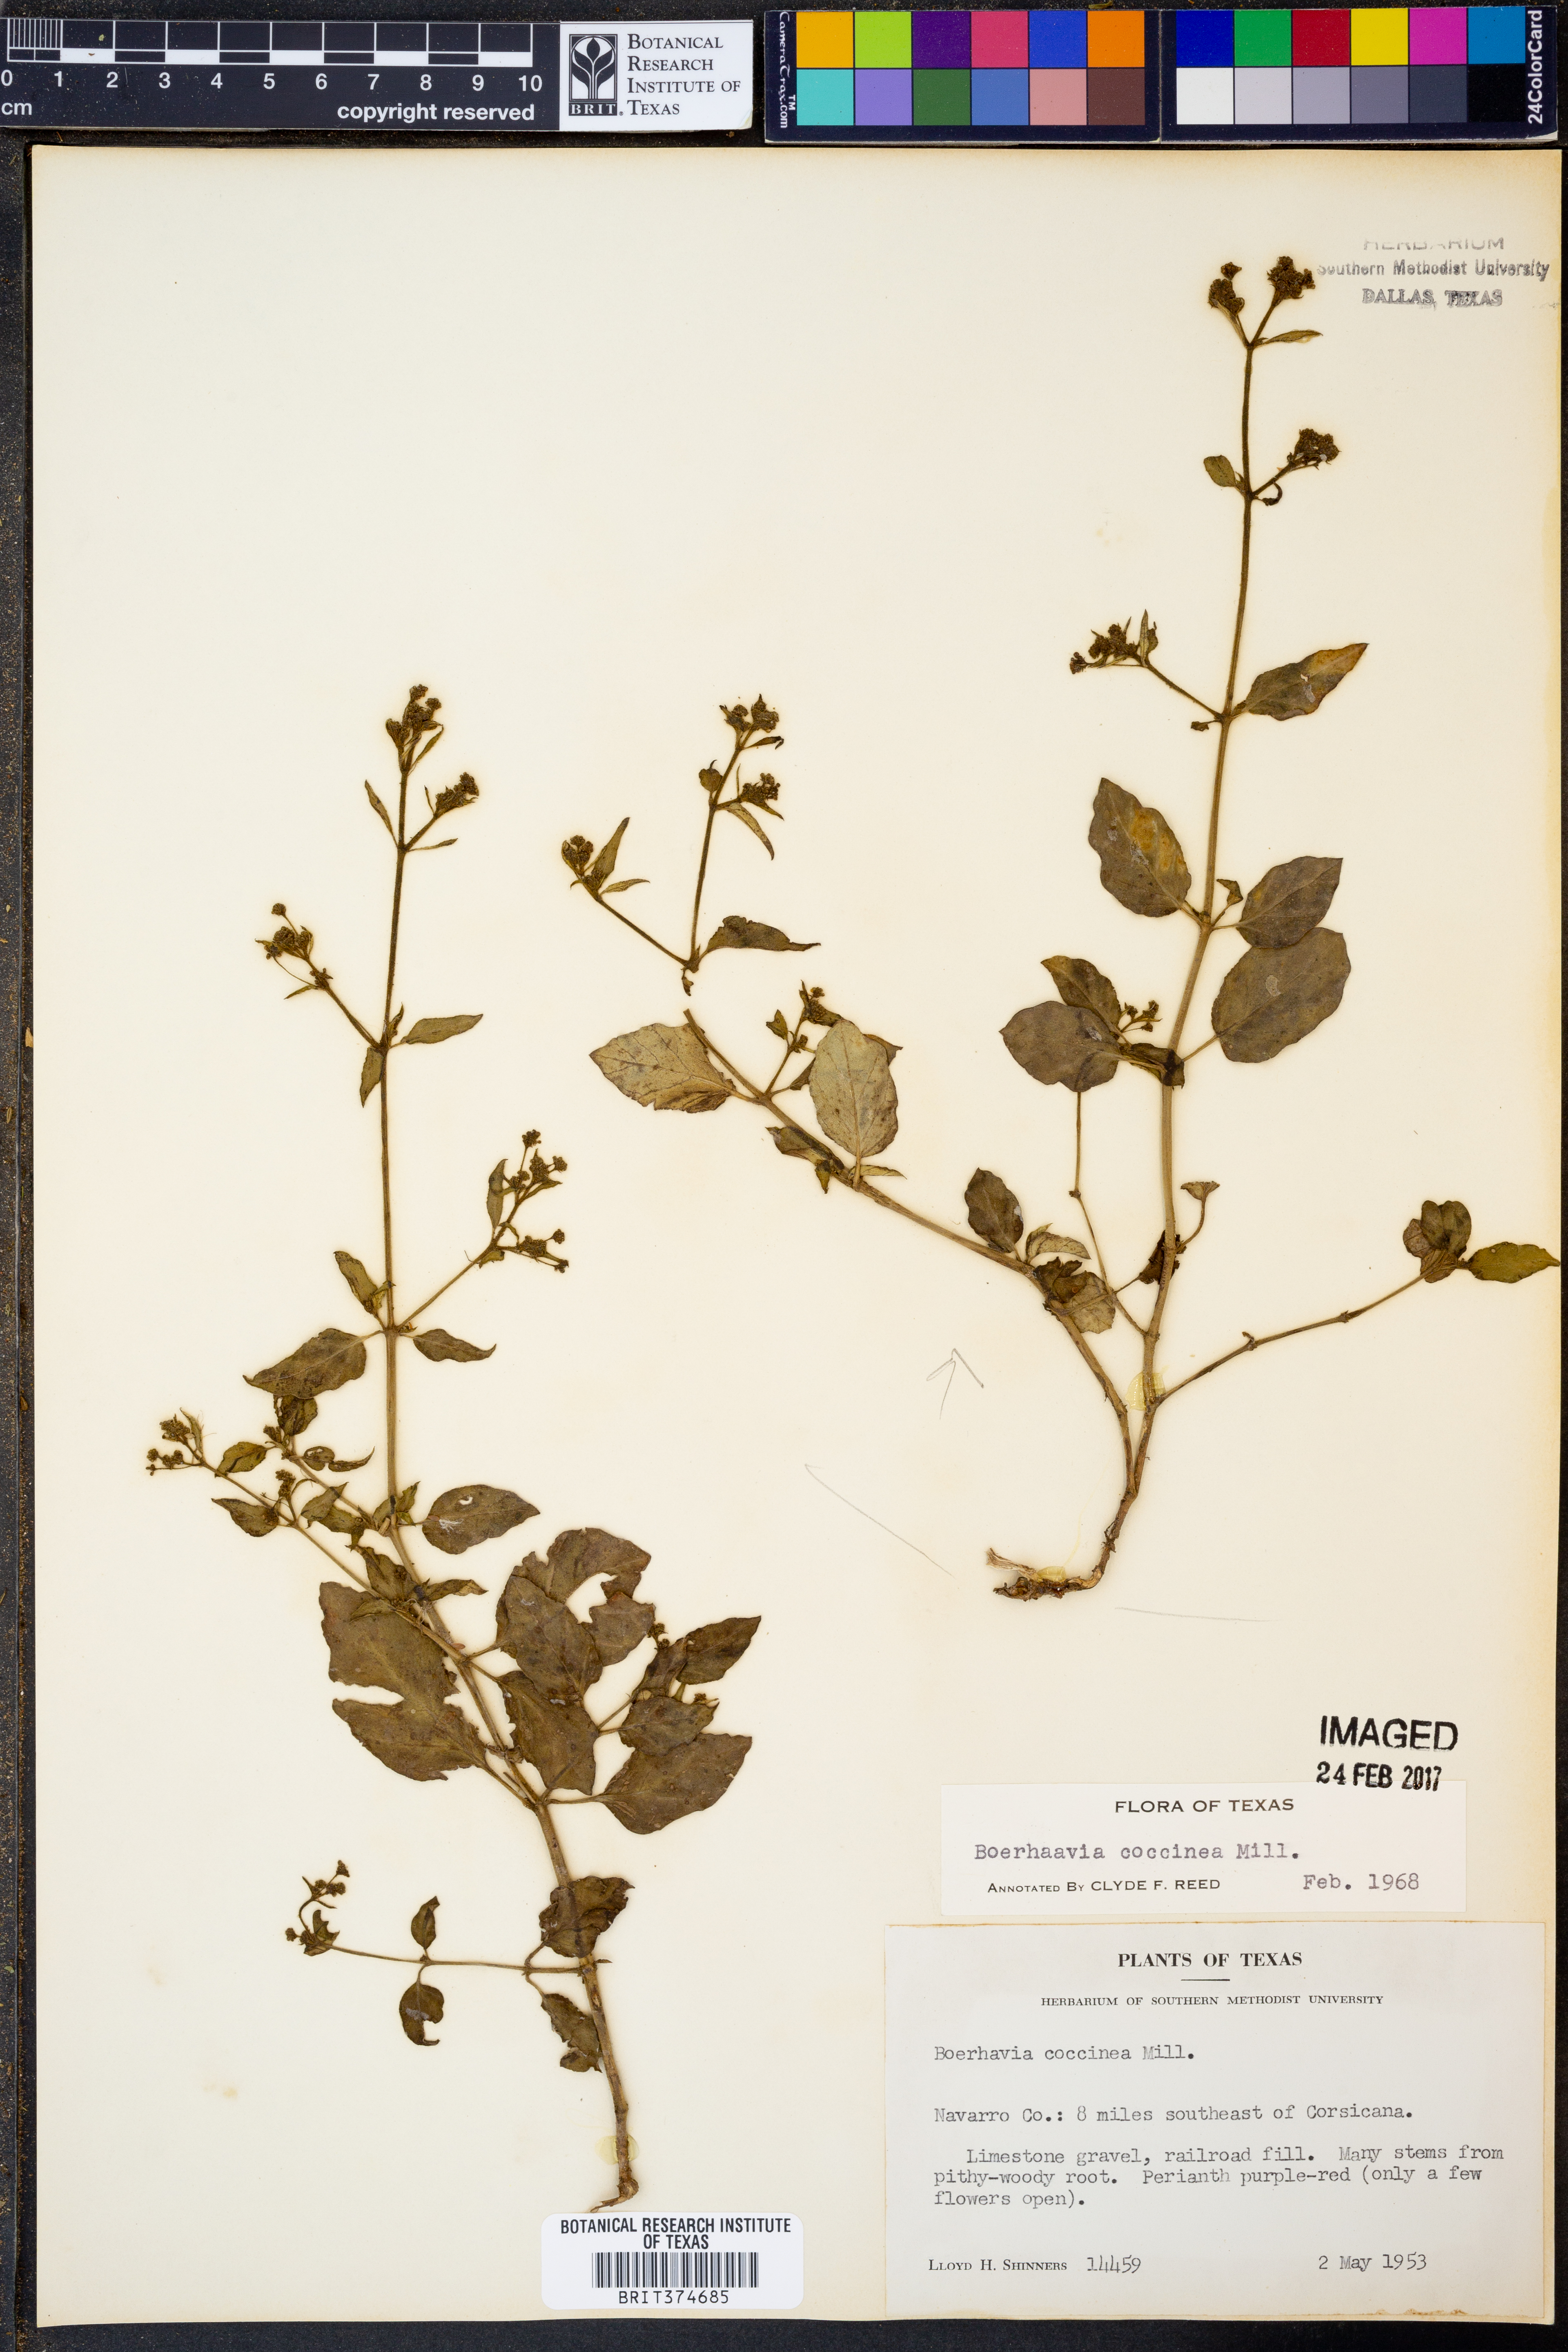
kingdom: Plantae
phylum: Tracheophyta
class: Magnoliopsida
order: Caryophyllales
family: Nyctaginaceae
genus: Boerhavia
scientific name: Boerhavia coccinea
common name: Scarlet spiderling
